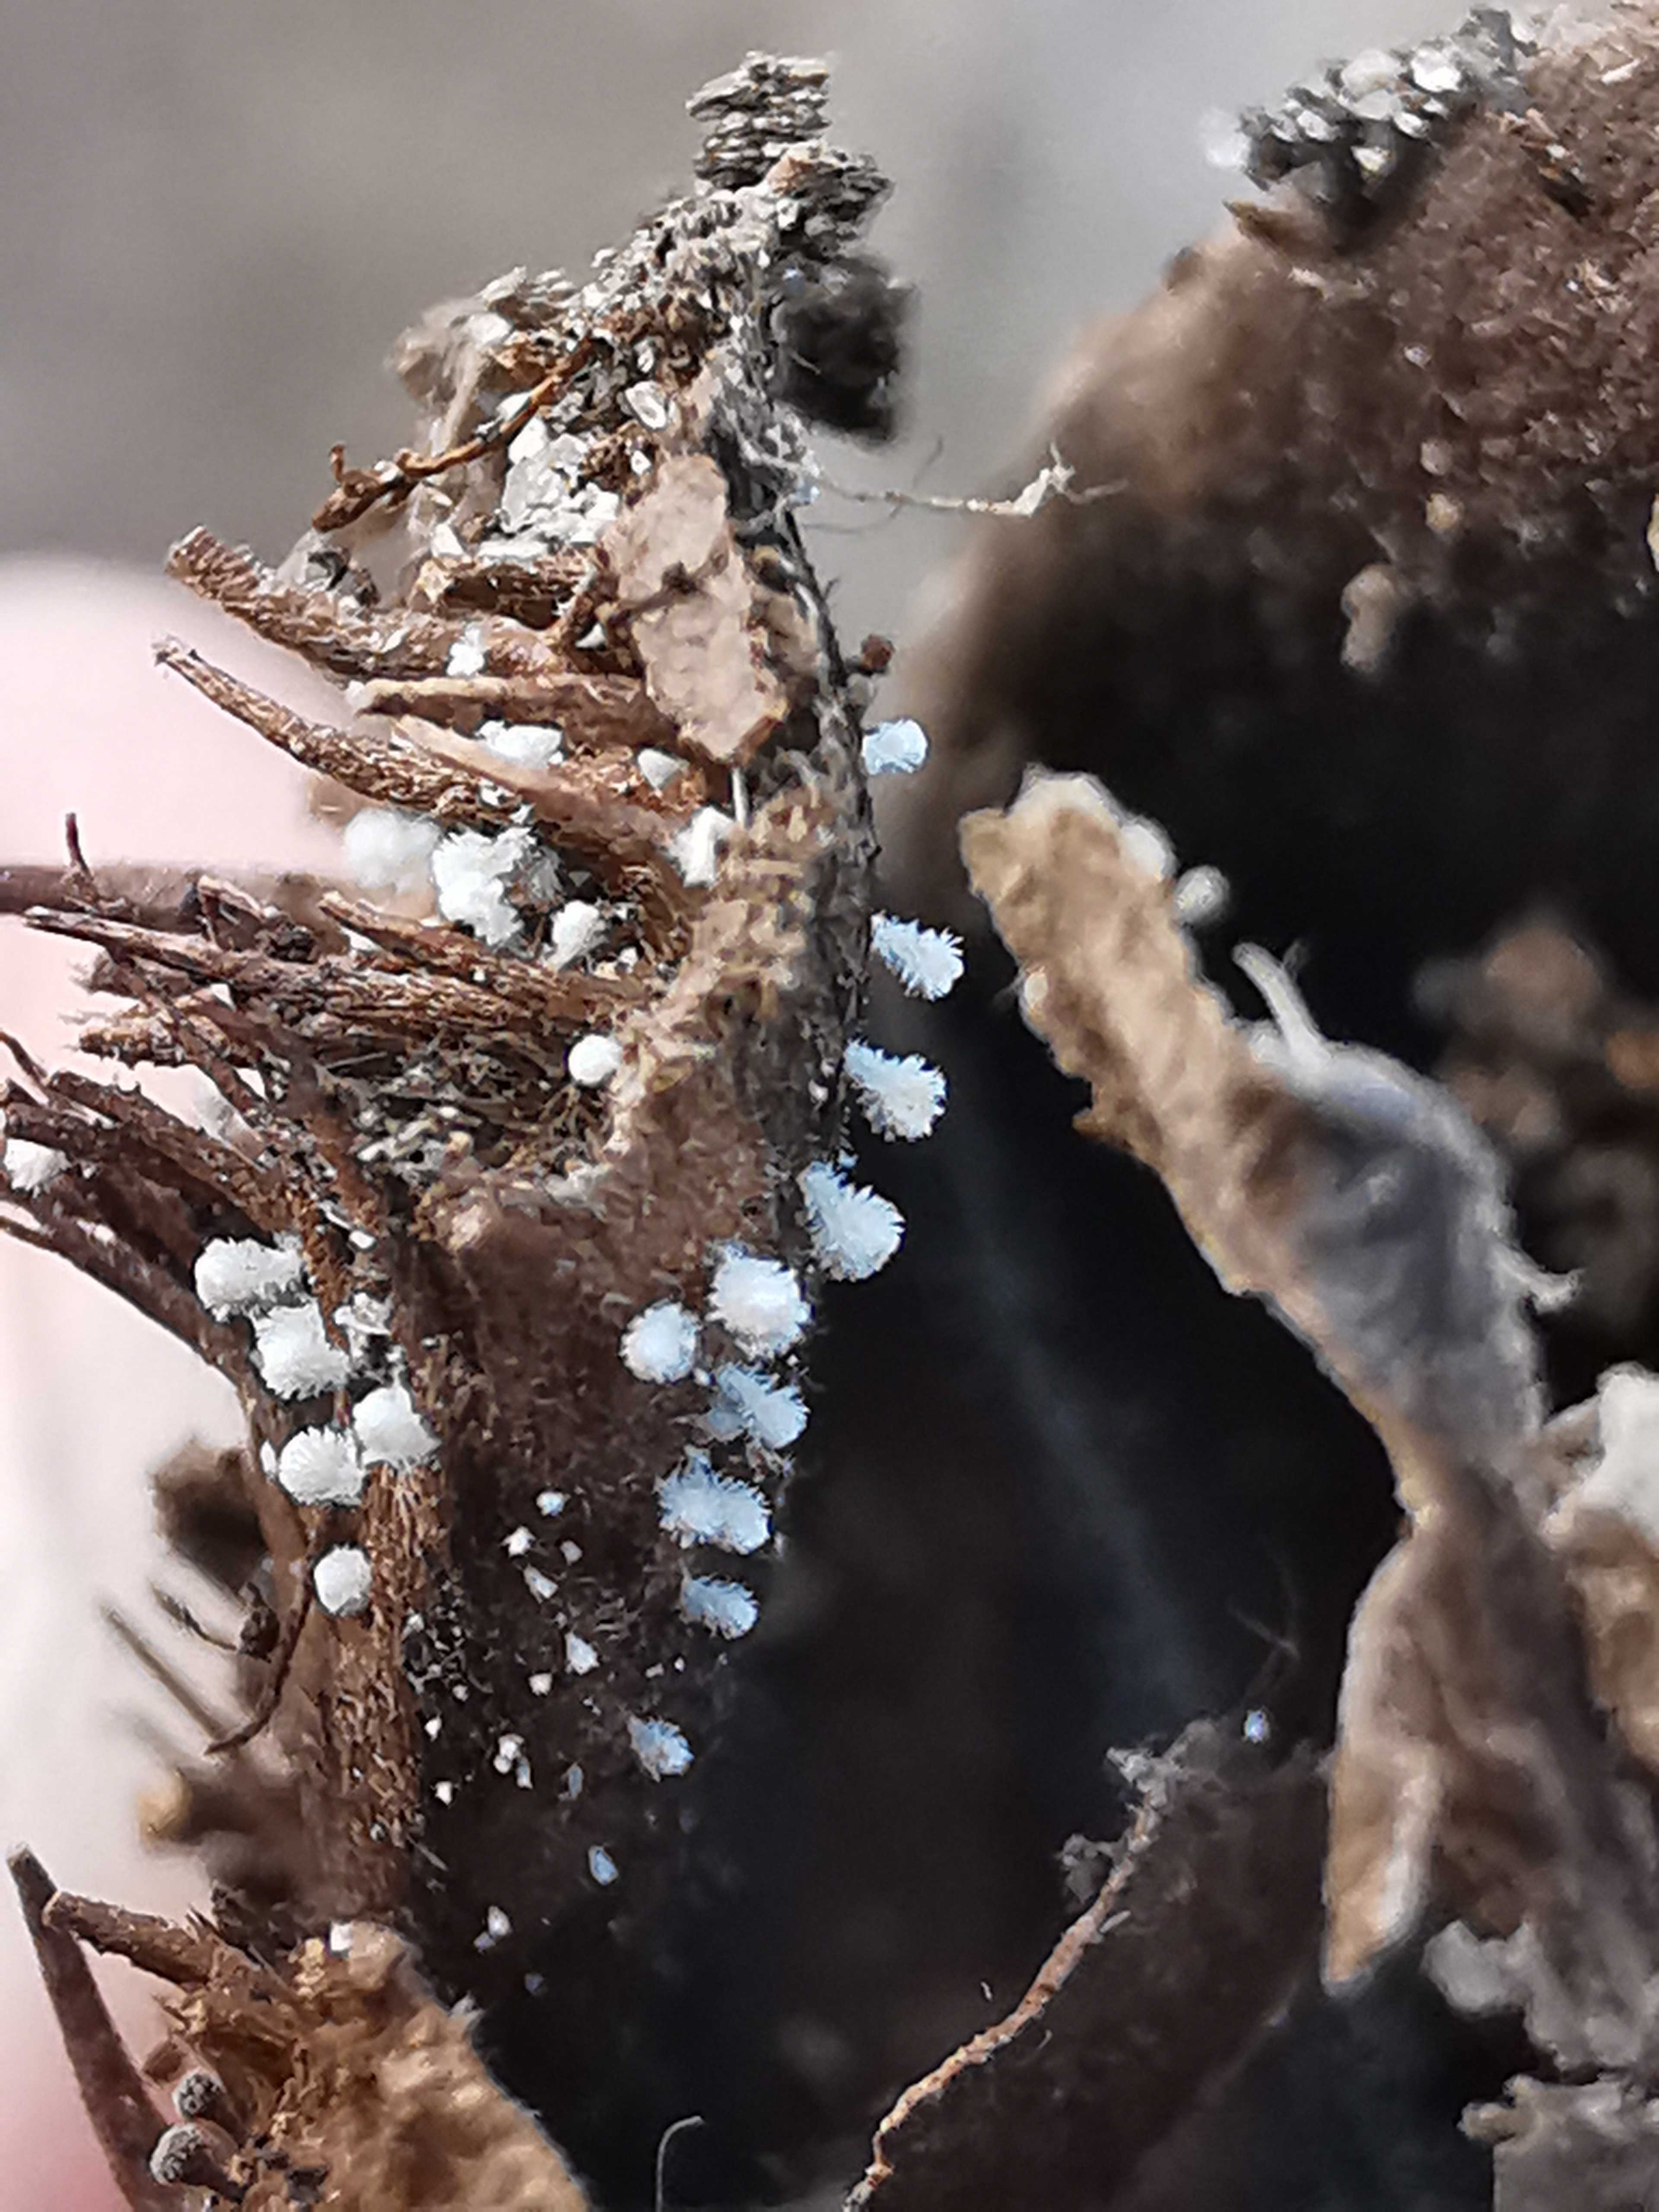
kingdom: Fungi
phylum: Ascomycota
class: Leotiomycetes
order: Helotiales
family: Lachnaceae
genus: Lachnum
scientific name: Lachnum virgineum
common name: jomfru-frynseskive
